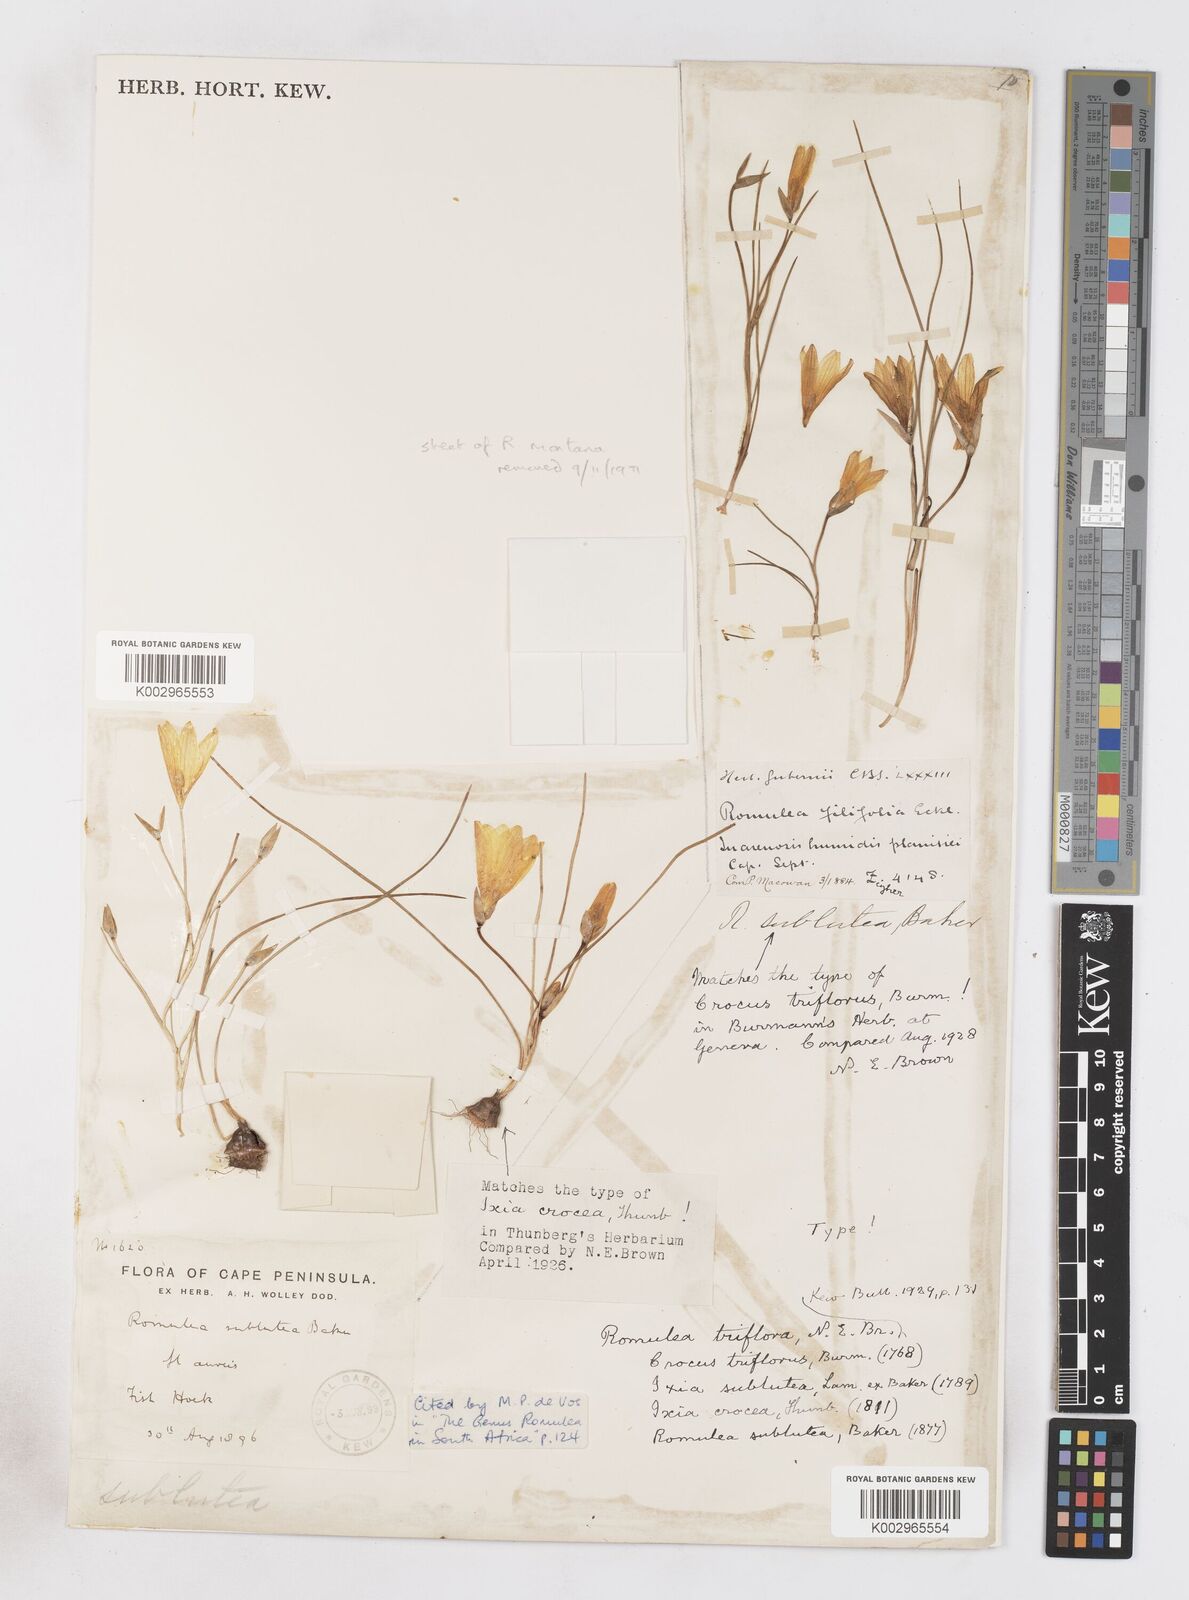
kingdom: Plantae
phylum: Tracheophyta
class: Liliopsida
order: Asparagales
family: Iridaceae
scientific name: Iridaceae
